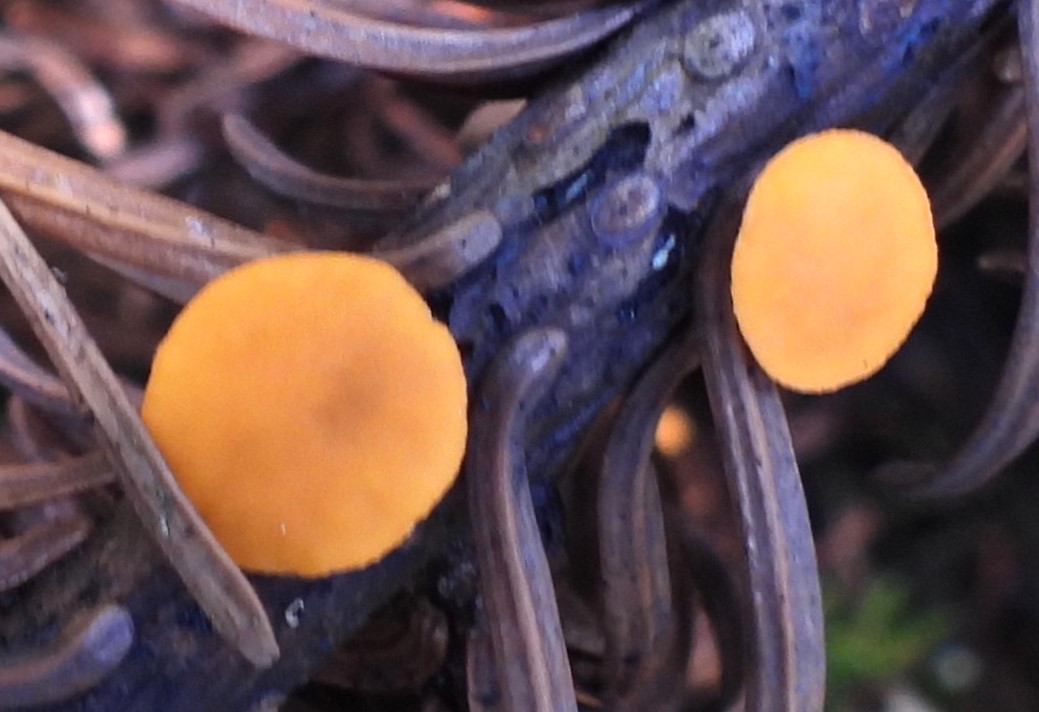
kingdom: Fungi
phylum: Ascomycota
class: Pezizomycetes
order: Pezizales
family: Sarcoscyphaceae
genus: Pithya
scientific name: Pithya vulgaris
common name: stor dukatbæger
